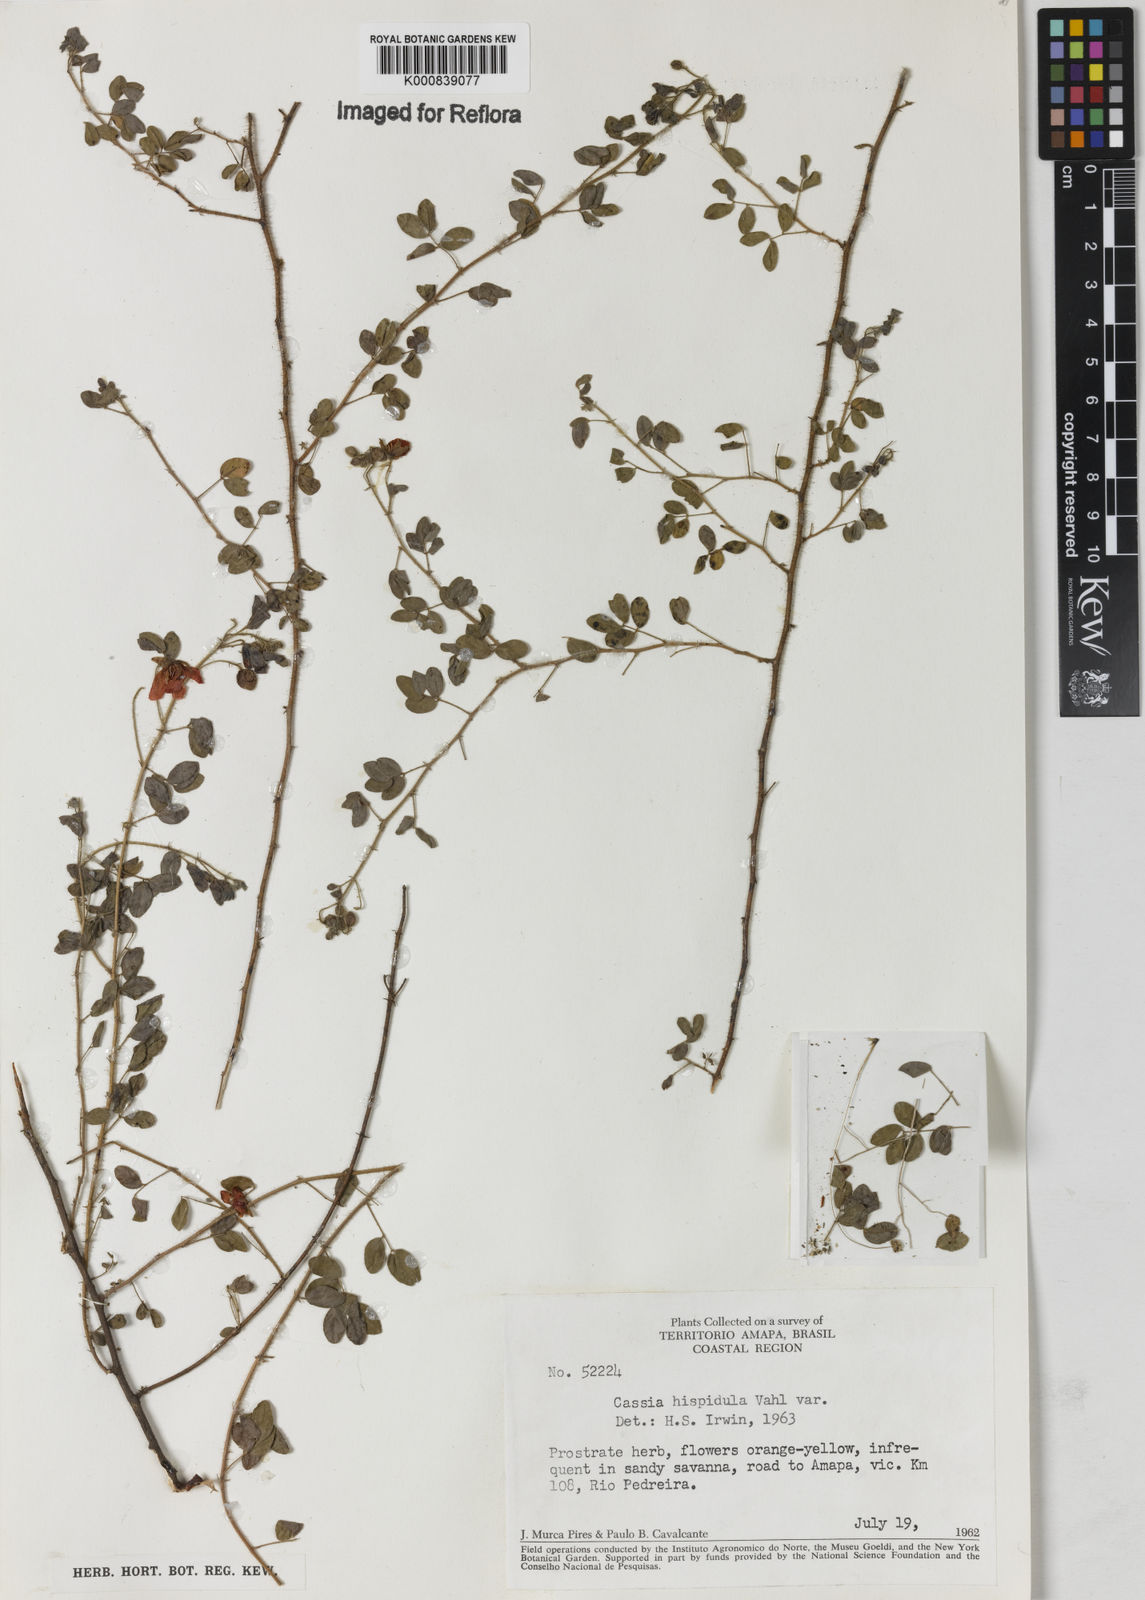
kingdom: Plantae
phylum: Tracheophyta
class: Magnoliopsida
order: Fabales
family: Fabaceae
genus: Chamaecrista
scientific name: Chamaecrista fagonioides
